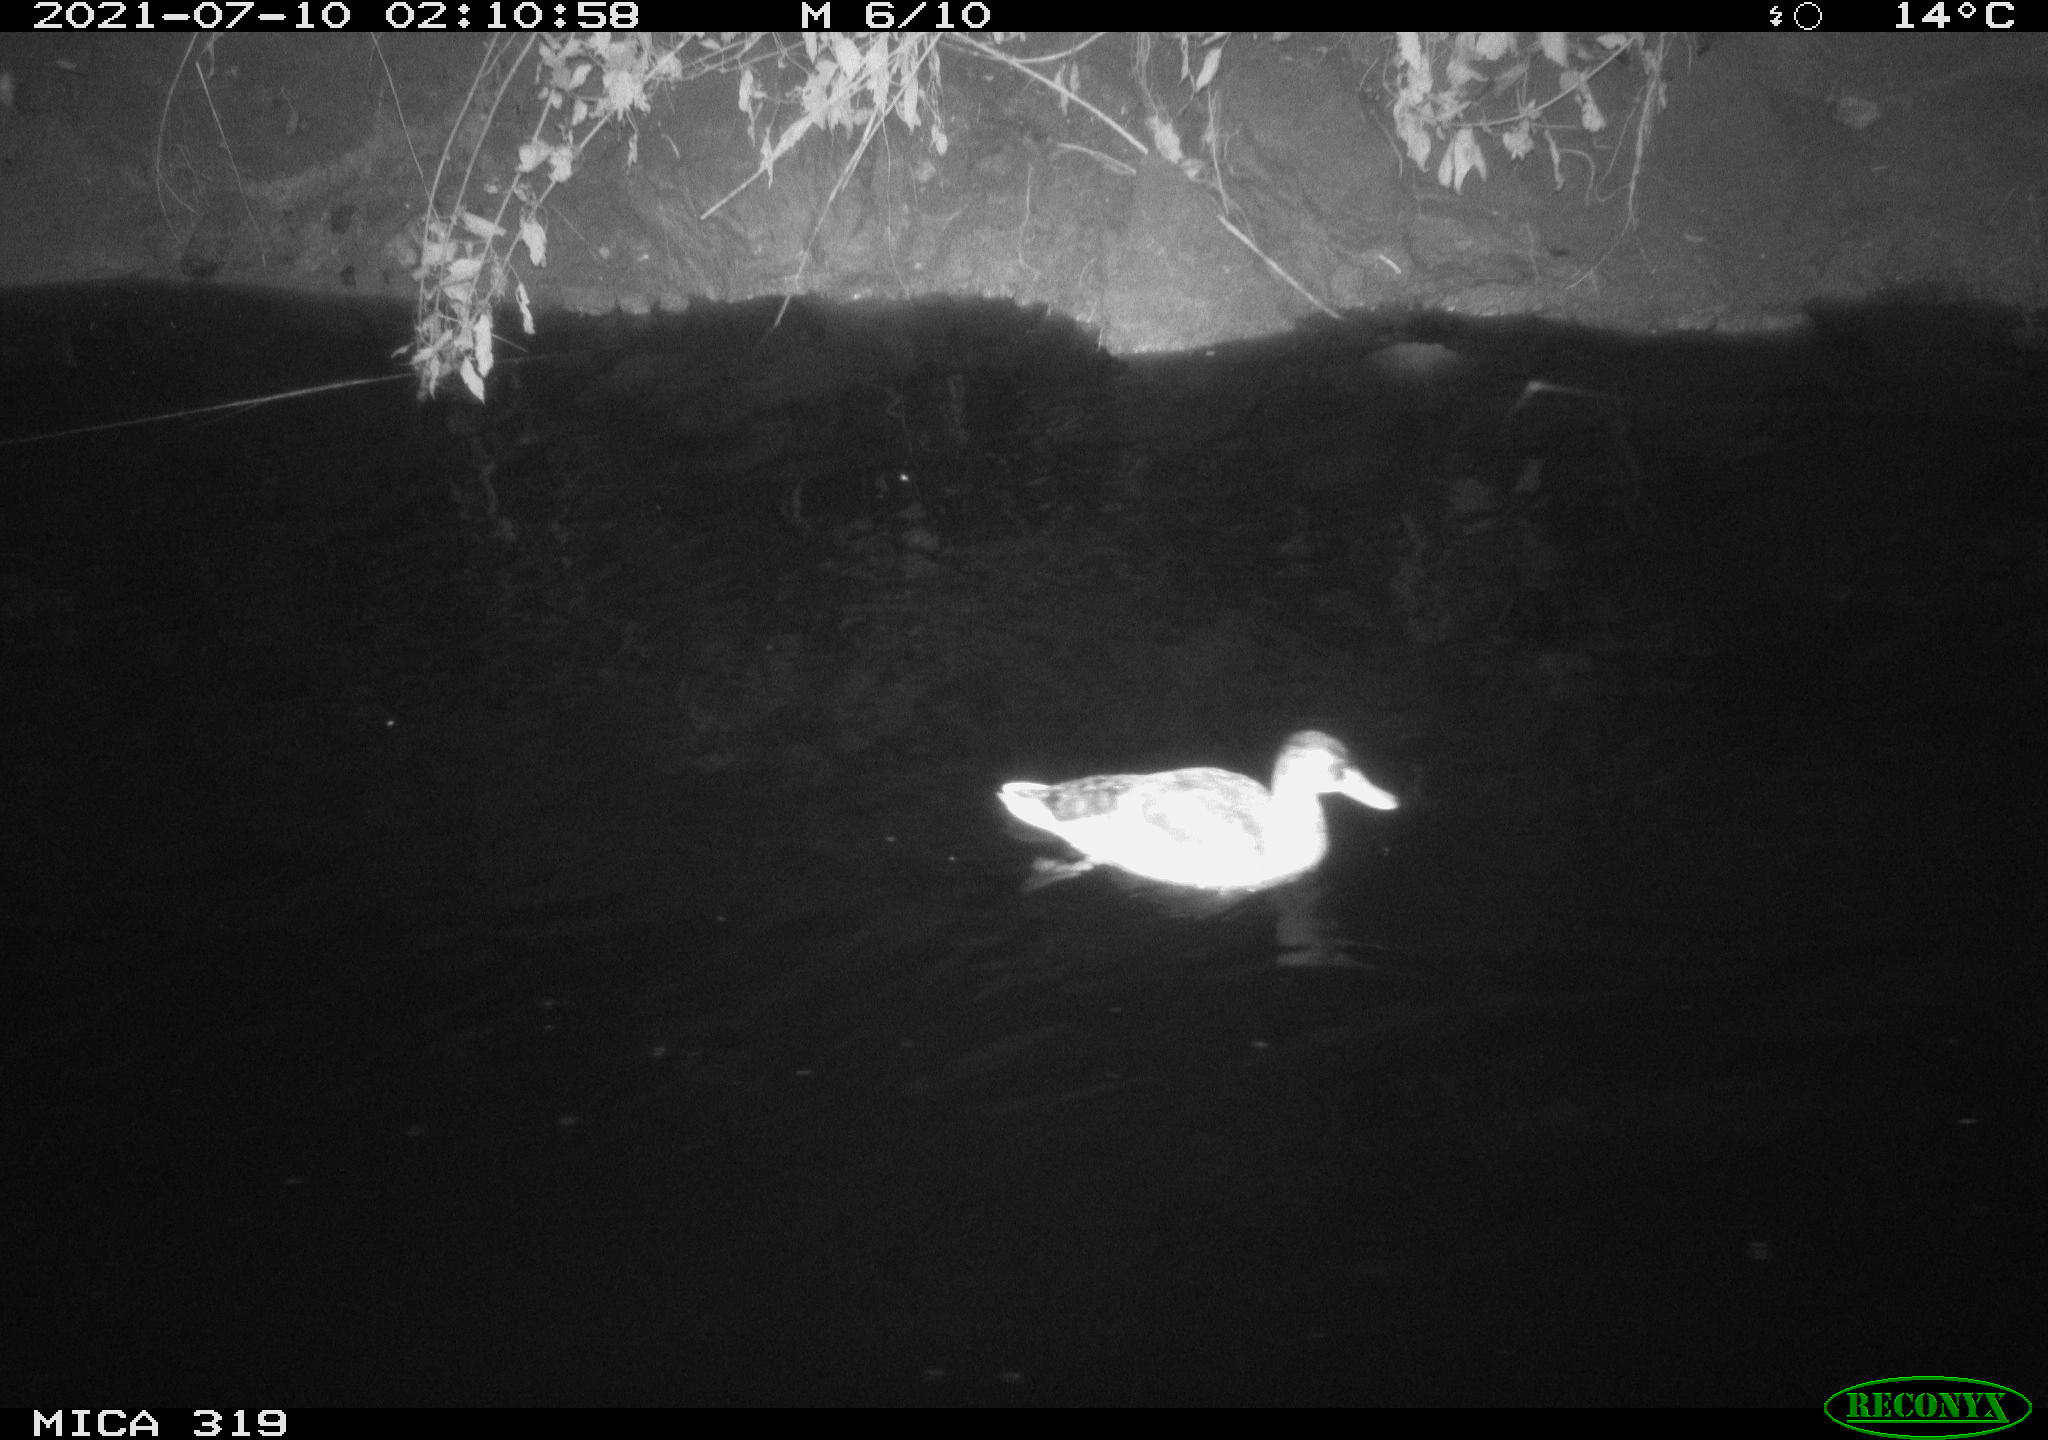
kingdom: Animalia
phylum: Chordata
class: Aves
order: Anseriformes
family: Anatidae
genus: Anas
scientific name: Anas platyrhynchos
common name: Mallard
